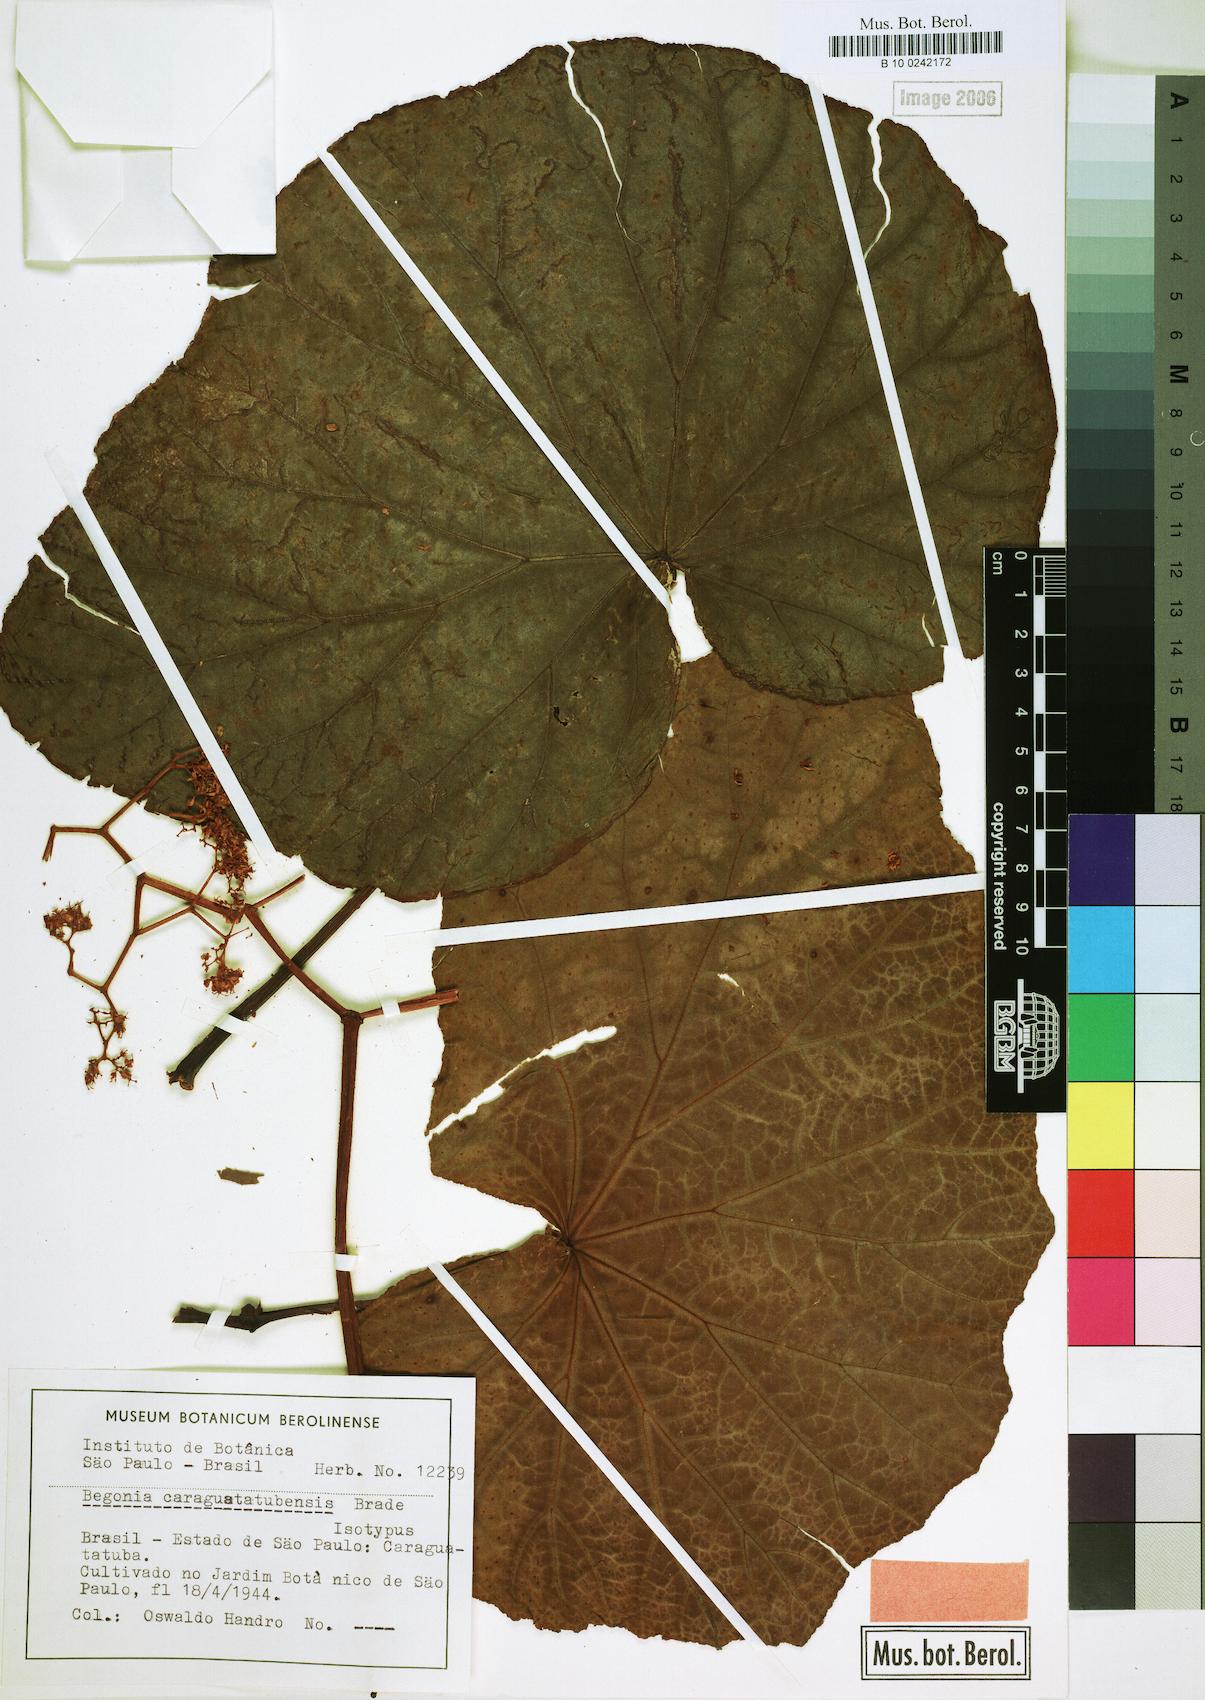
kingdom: Plantae
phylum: Tracheophyta
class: Magnoliopsida
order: Cucurbitales
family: Begoniaceae
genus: Begonia
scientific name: Begonia caraguatatubensis
